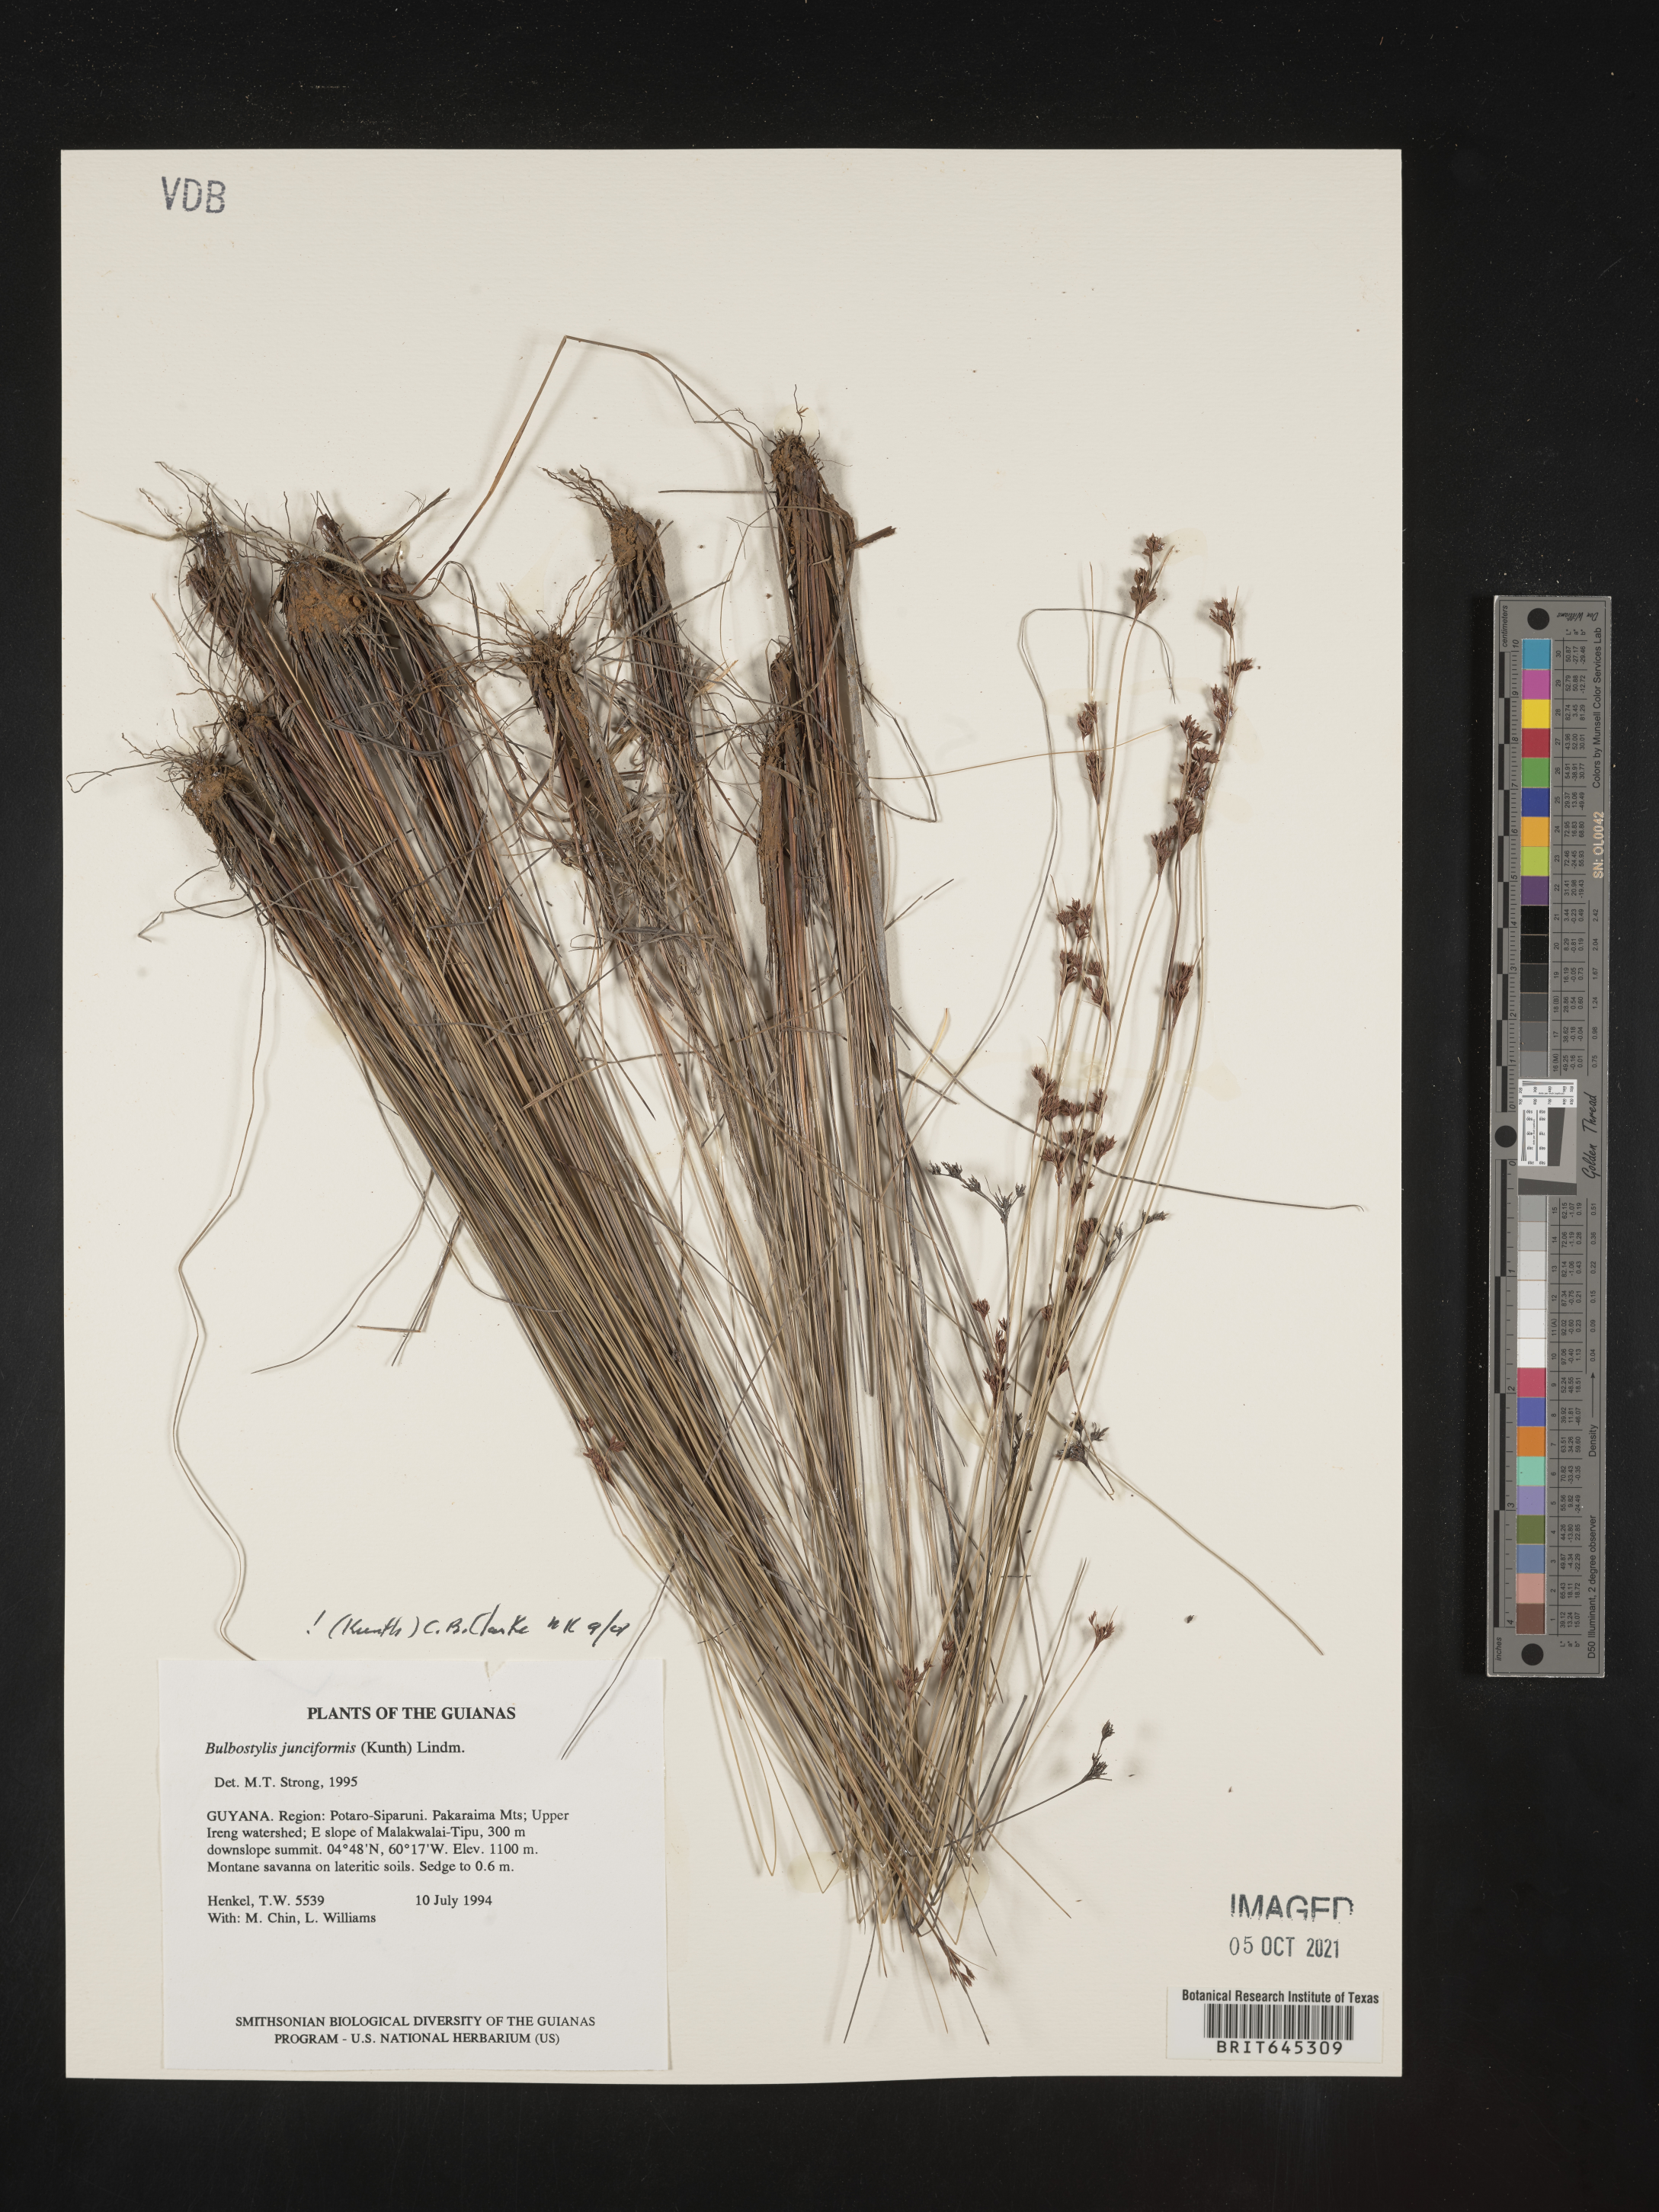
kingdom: Plantae
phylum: Tracheophyta
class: Liliopsida
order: Poales
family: Cyperaceae
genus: Bulbostylis
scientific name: Bulbostylis junciformis
